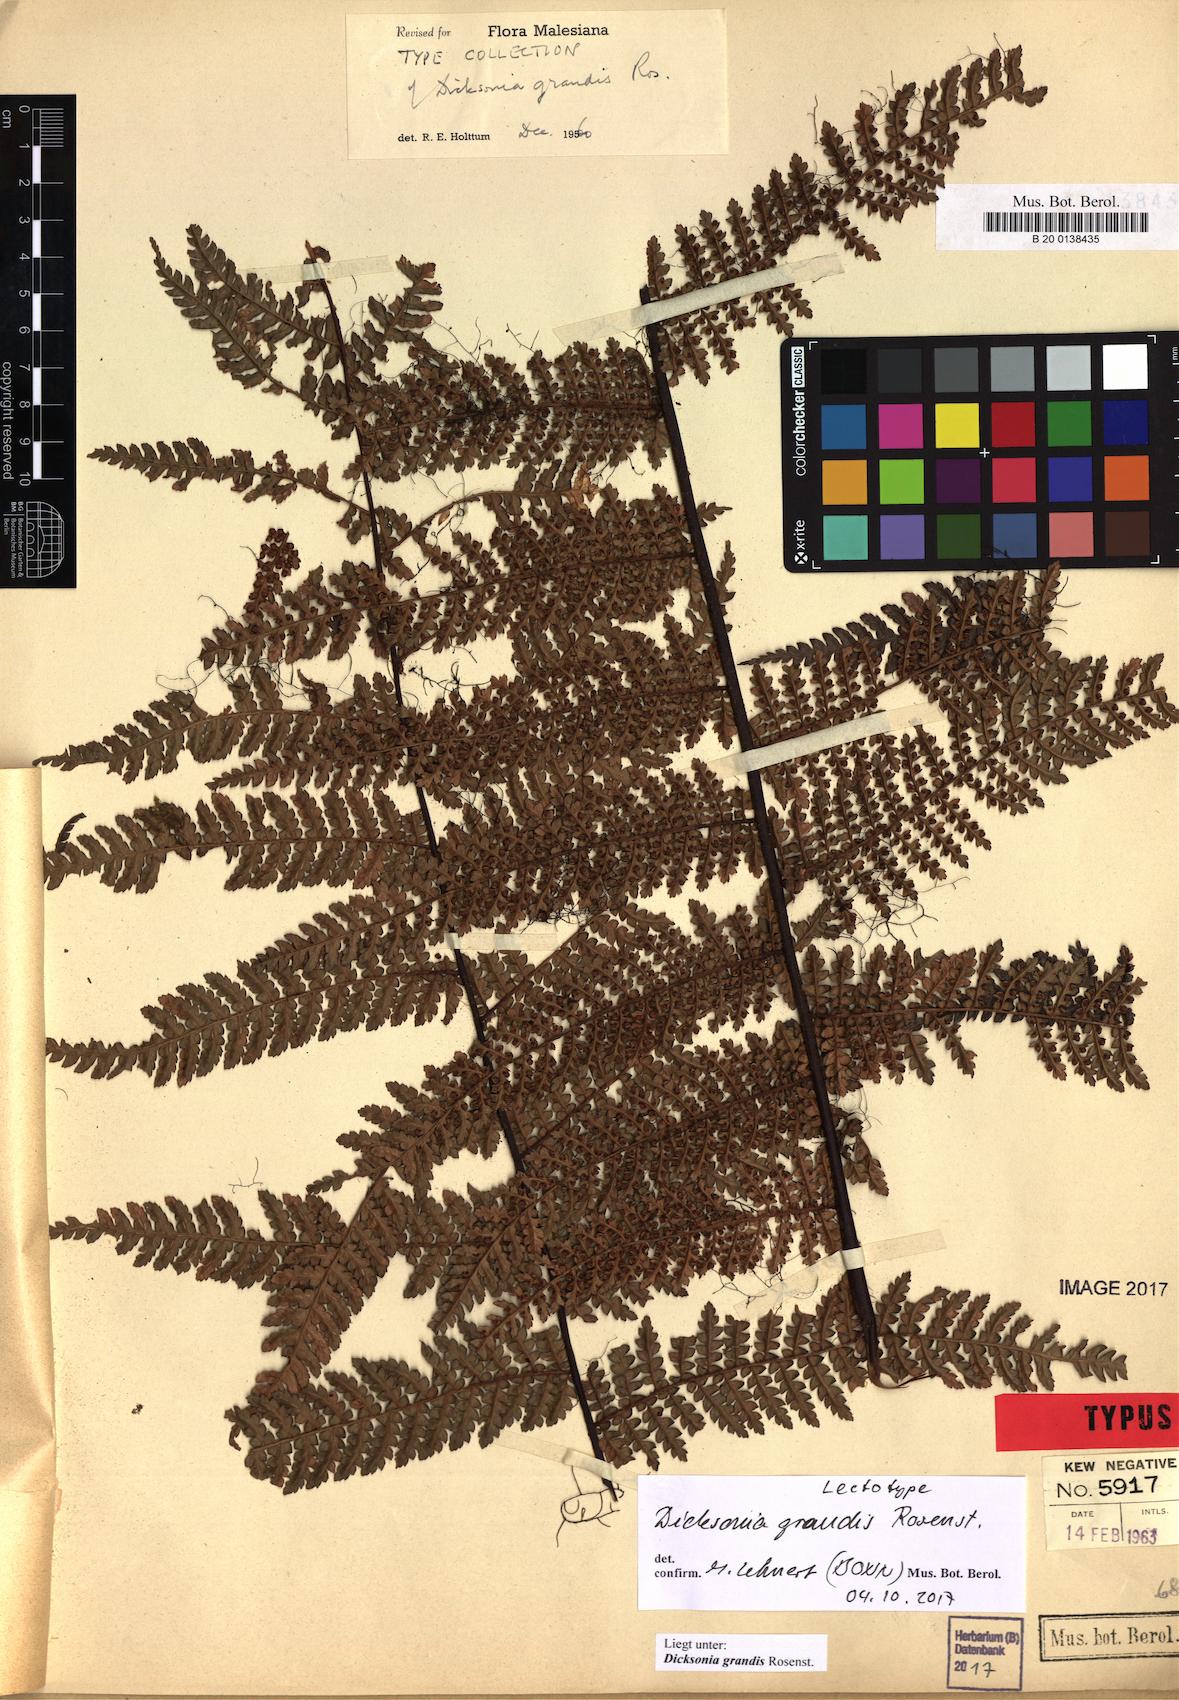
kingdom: Plantae
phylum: Tracheophyta
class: Polypodiopsida
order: Cyatheales
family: Dicksoniaceae
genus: Dicksonia
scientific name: Dicksonia grandis
